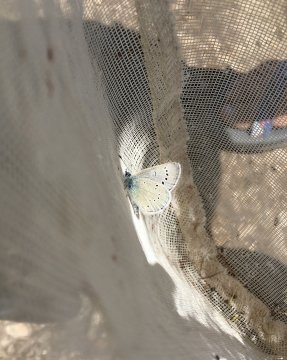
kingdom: Animalia
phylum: Arthropoda
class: Insecta
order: Lepidoptera
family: Lycaenidae
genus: Glaucopsyche
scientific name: Glaucopsyche lygdamus
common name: Silvery Blue
